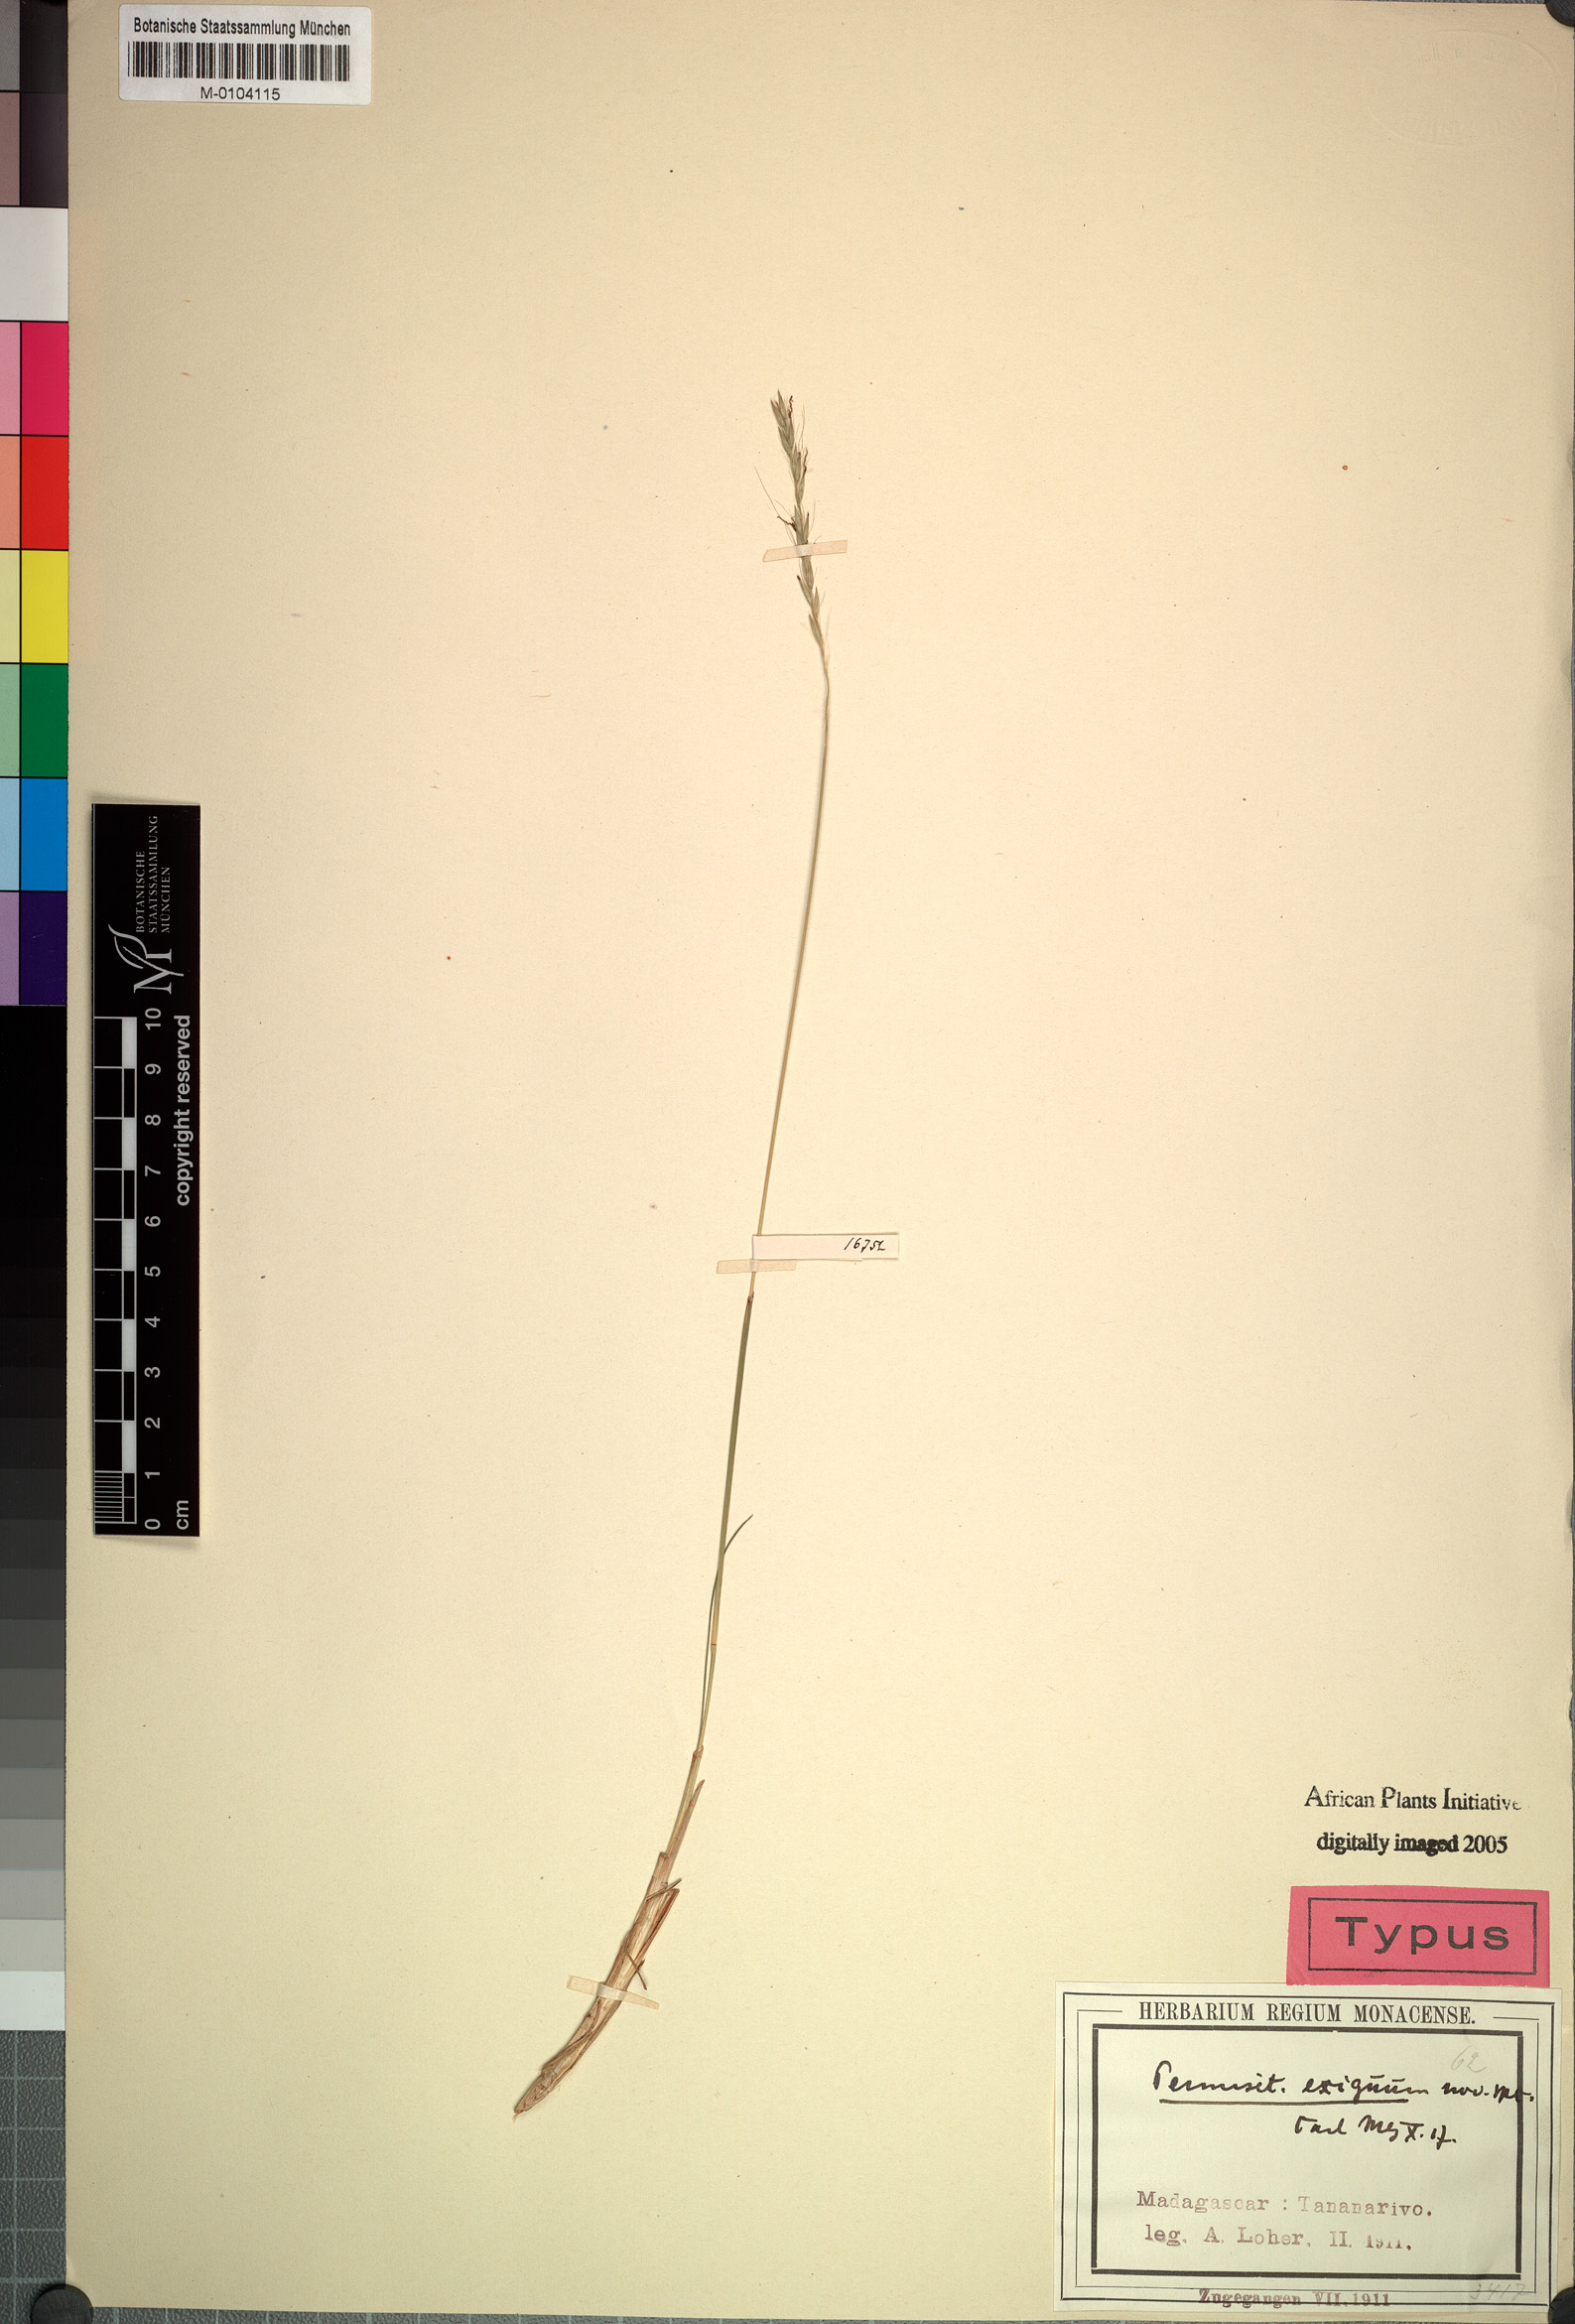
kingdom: Plantae
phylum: Tracheophyta
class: Liliopsida
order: Poales
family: Poaceae
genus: Cenchrus
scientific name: Cenchrus exiguus
